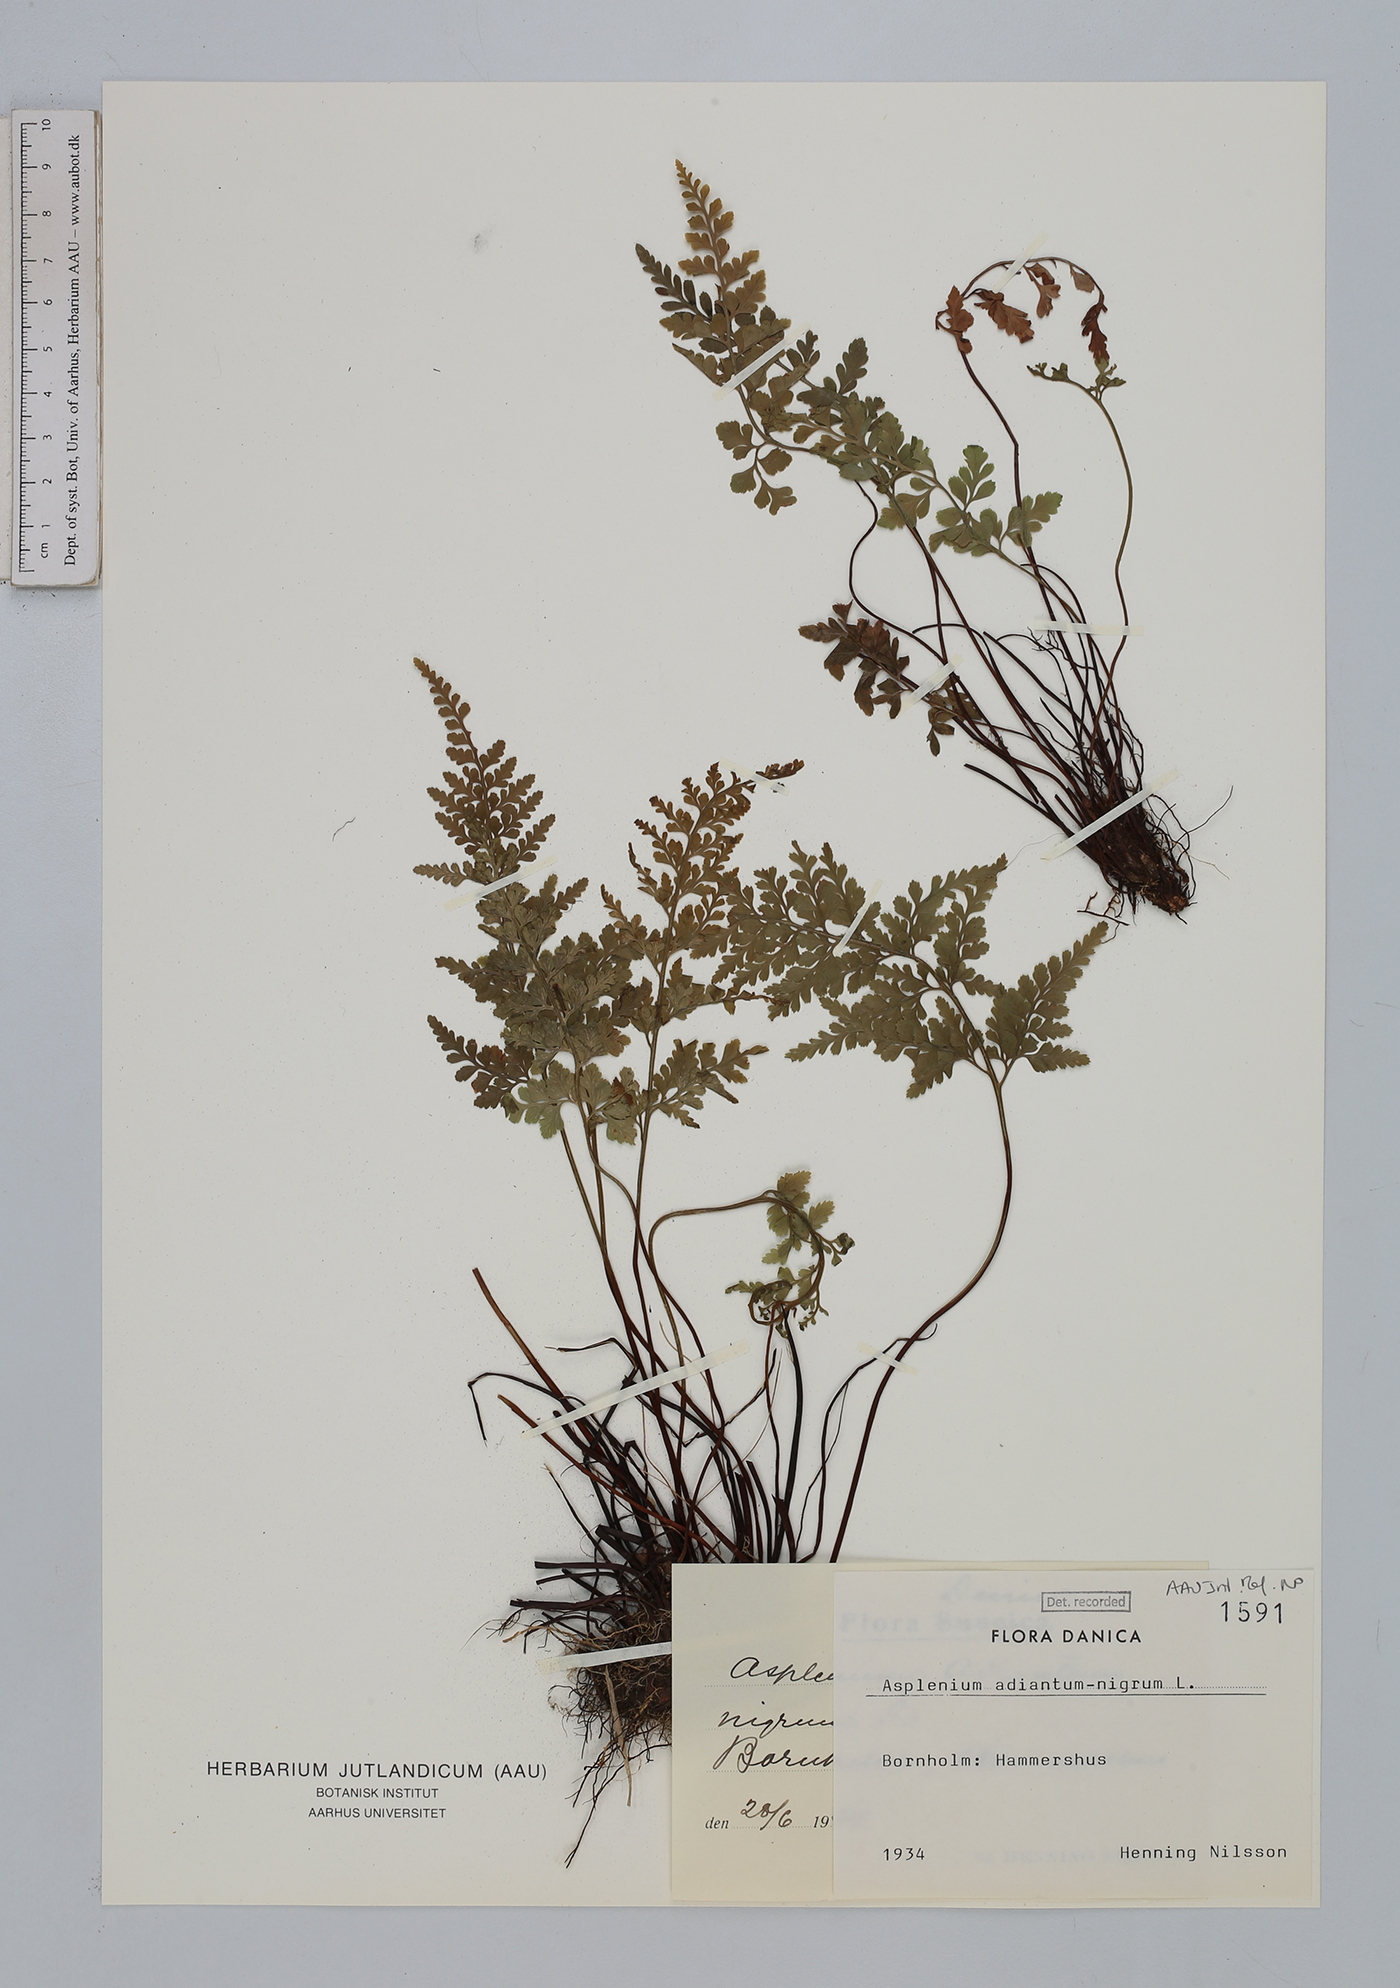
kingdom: Plantae
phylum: Tracheophyta
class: Polypodiopsida
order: Polypodiales
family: Aspleniaceae
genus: Asplenium
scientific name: Asplenium adiantum-nigrum
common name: Black spleenwort
